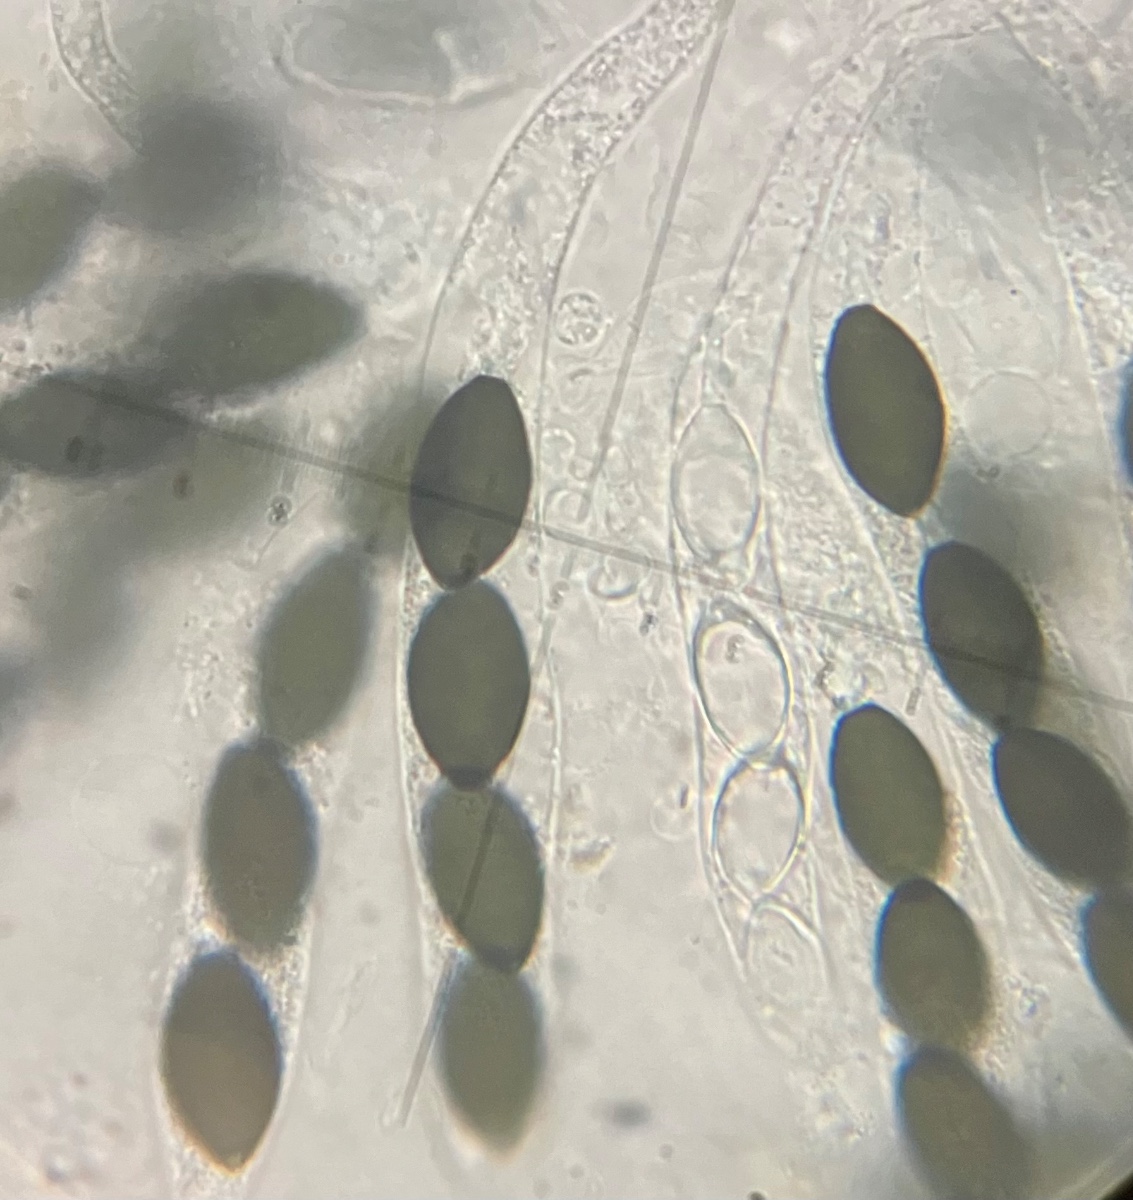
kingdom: Fungi
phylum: Ascomycota
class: Sordariomycetes
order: Sordariales
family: Neoschizotheciaceae
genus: Neoschizothecium
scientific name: Neoschizothecium tetrasporum
